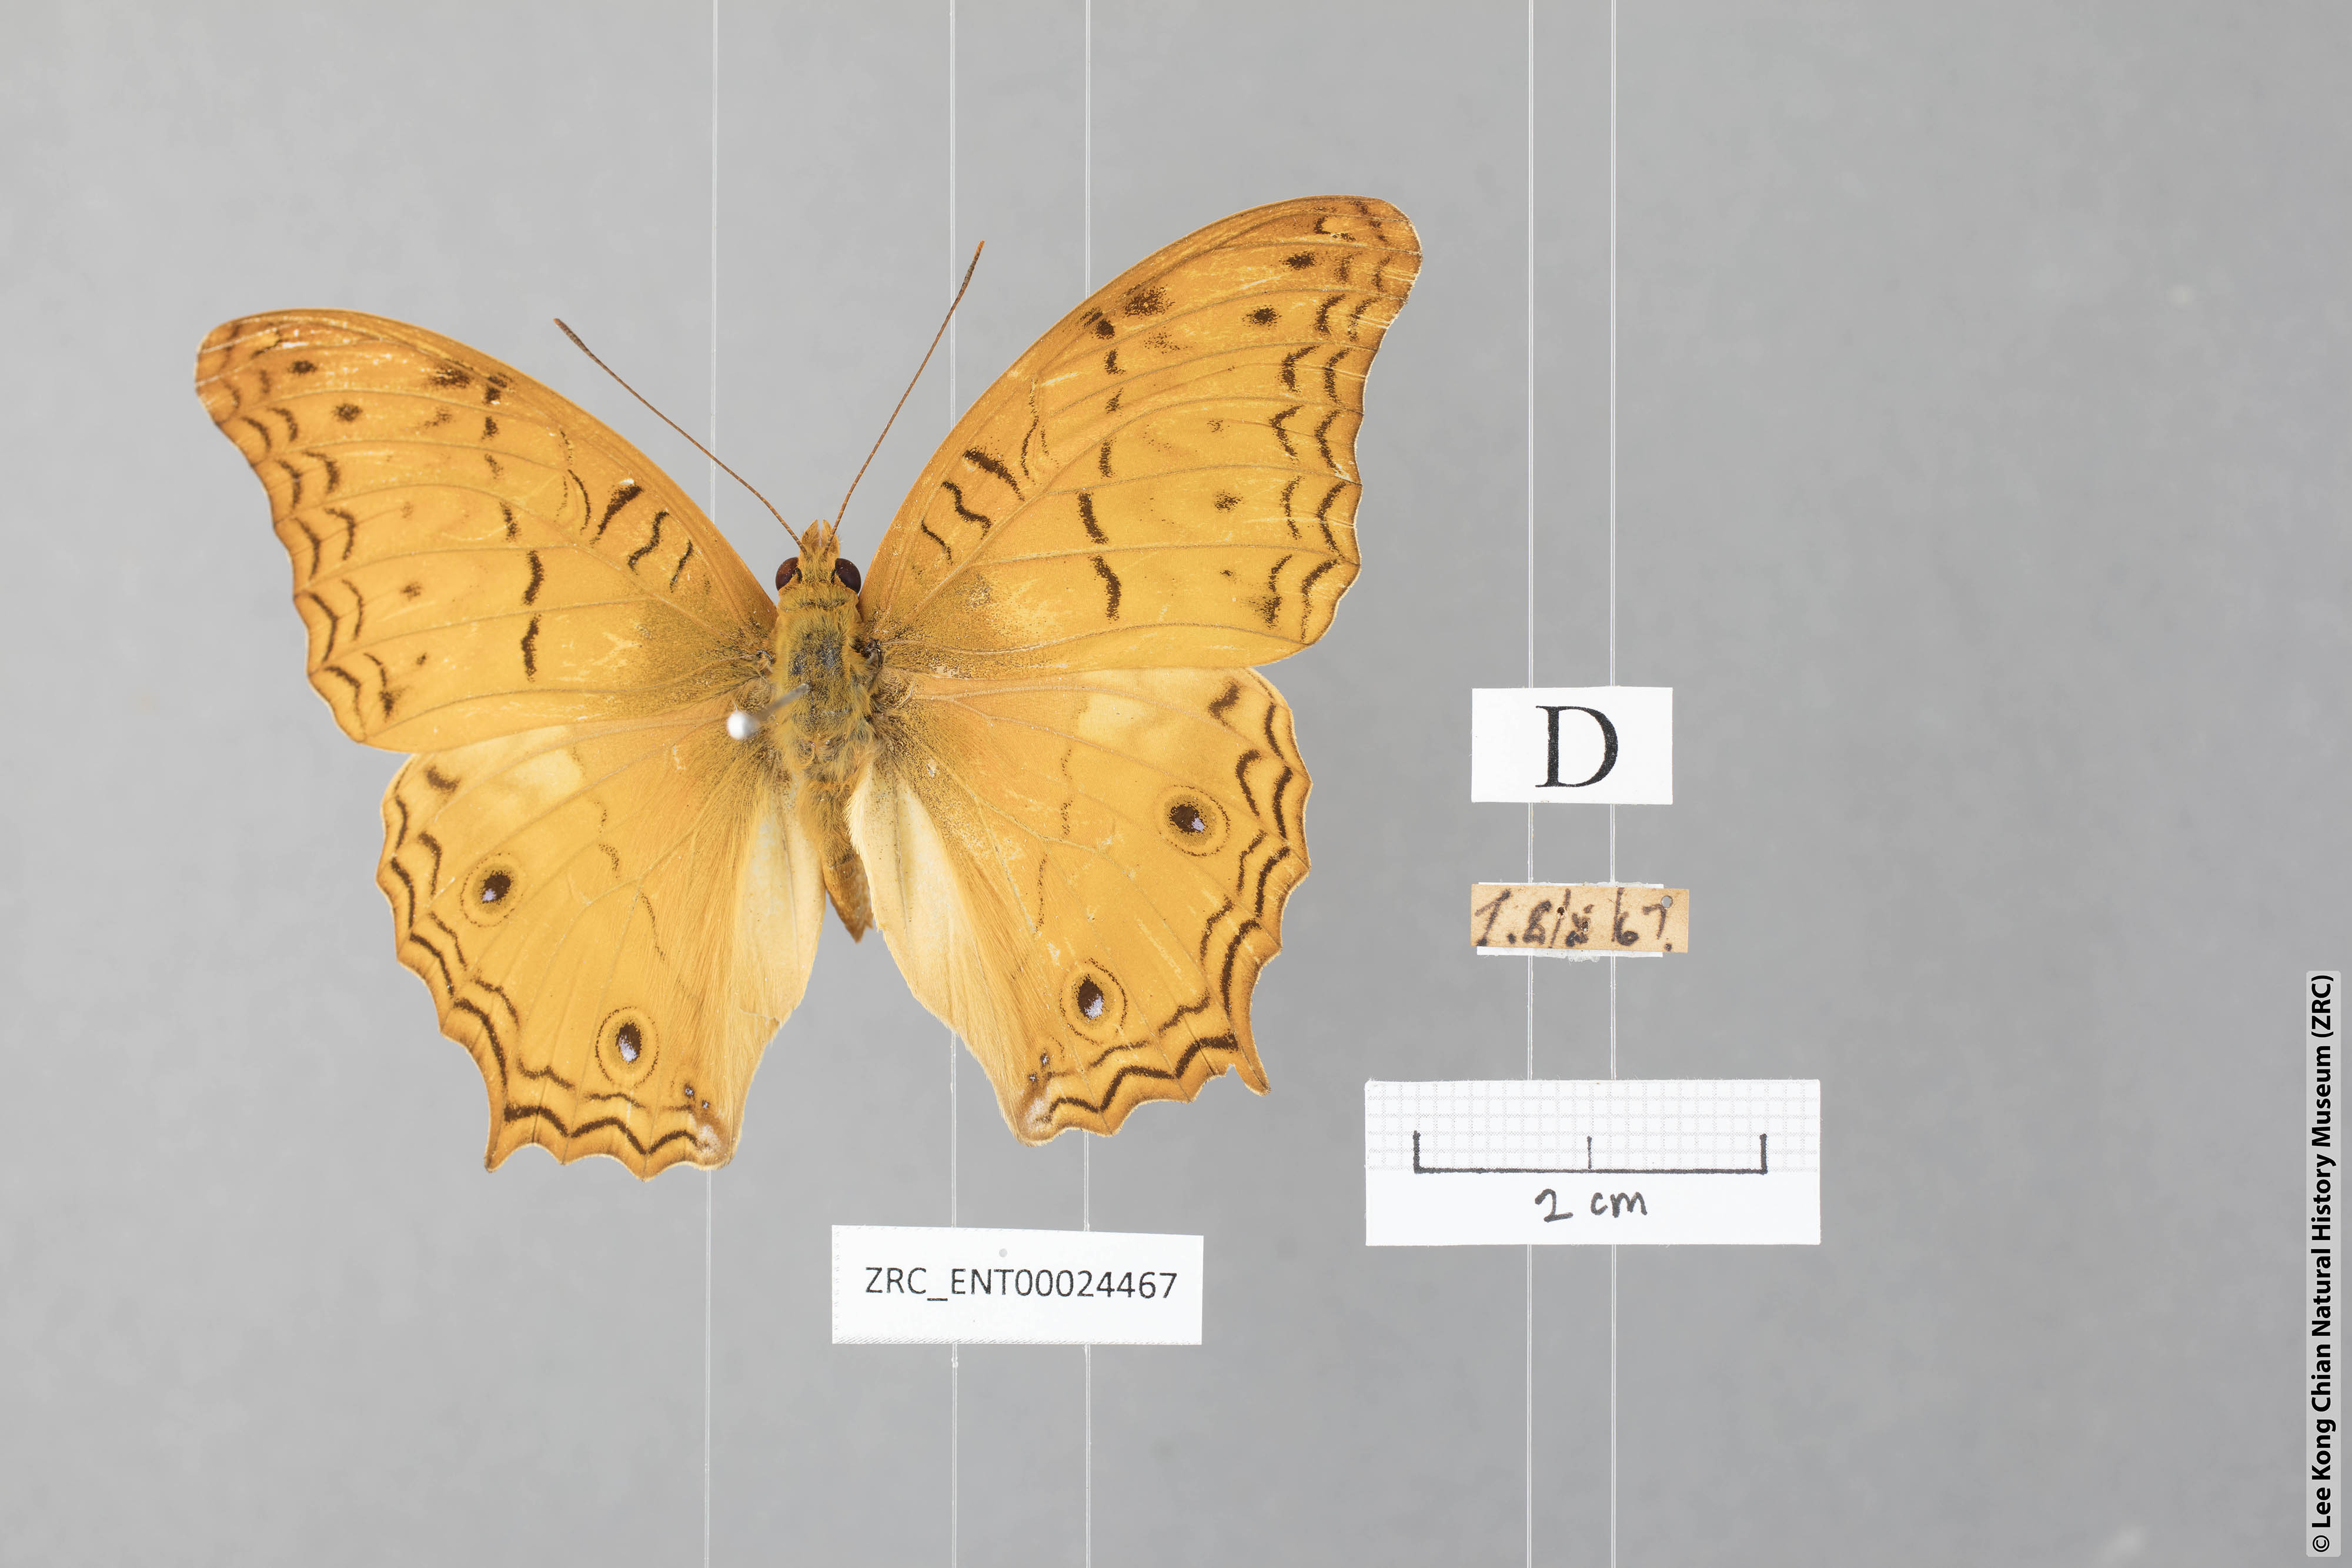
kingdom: Animalia
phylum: Arthropoda
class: Insecta
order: Lepidoptera
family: Nymphalidae
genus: Vindula
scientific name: Vindula deione
